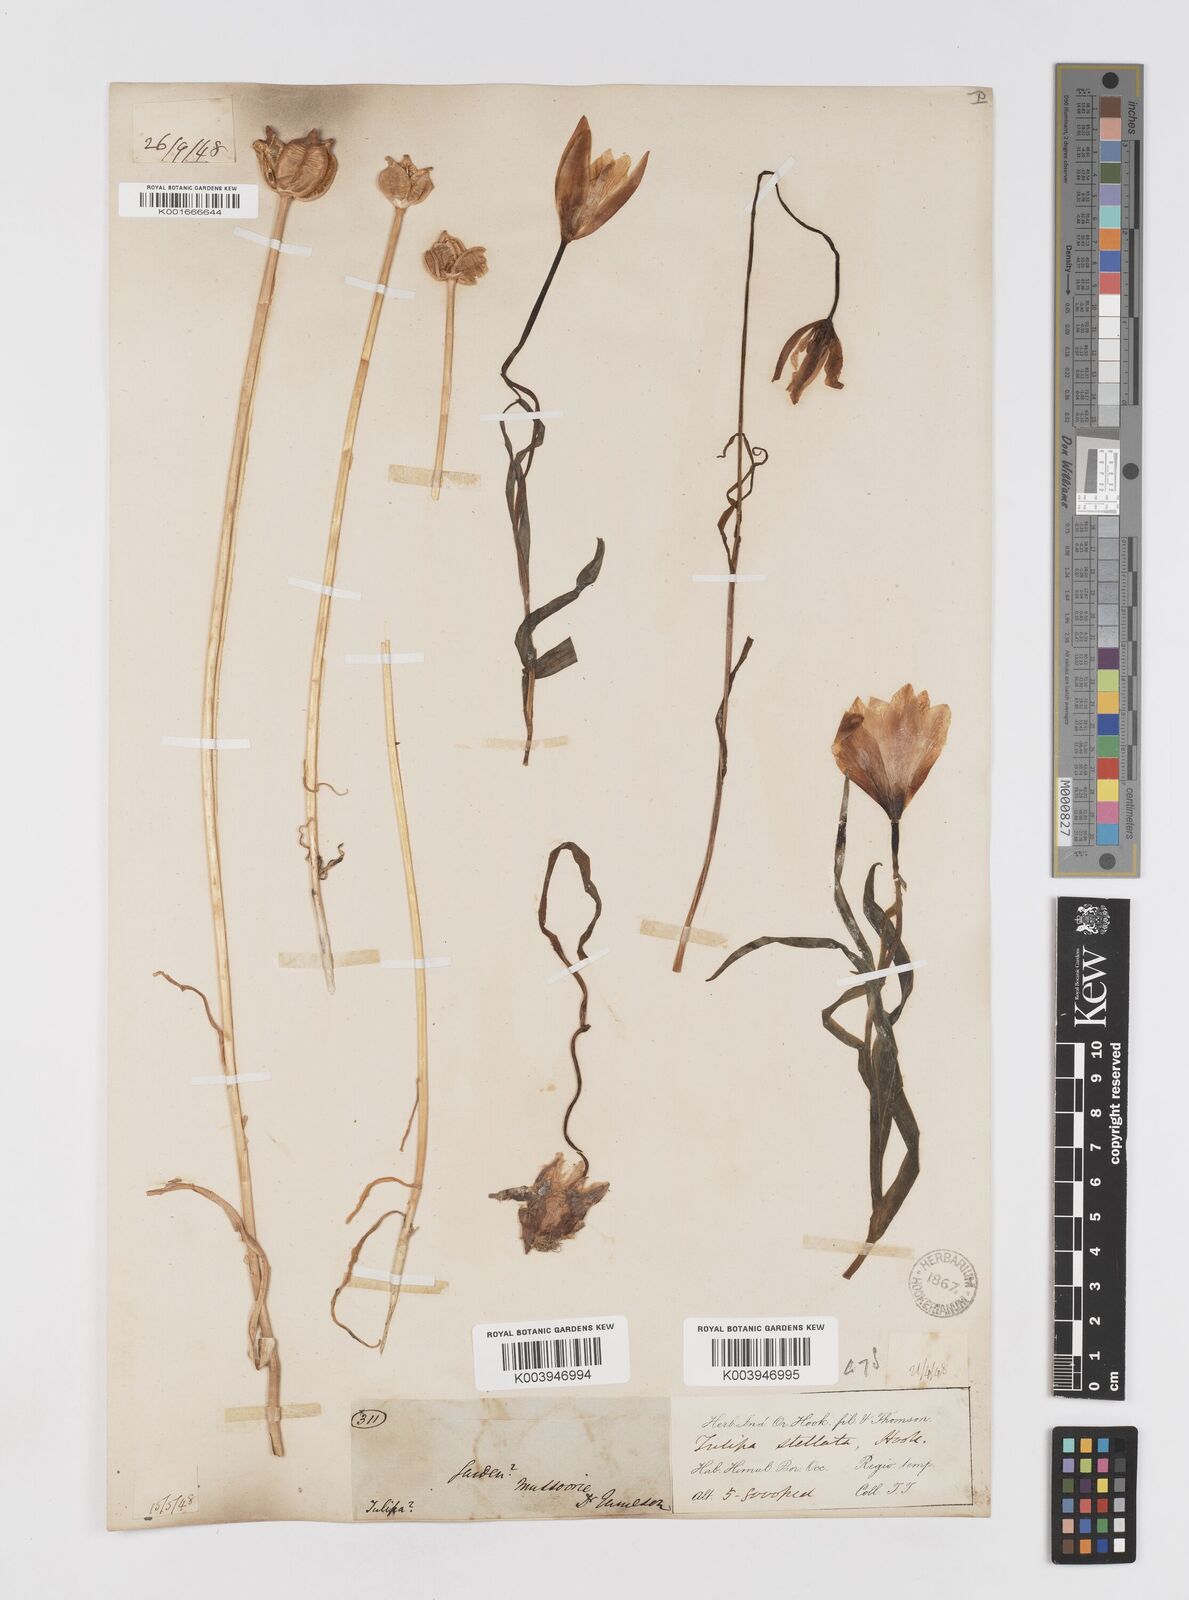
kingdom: Plantae
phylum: Tracheophyta
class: Liliopsida
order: Liliales
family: Liliaceae
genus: Tulipa
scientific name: Tulipa clusiana
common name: Lady tulip
